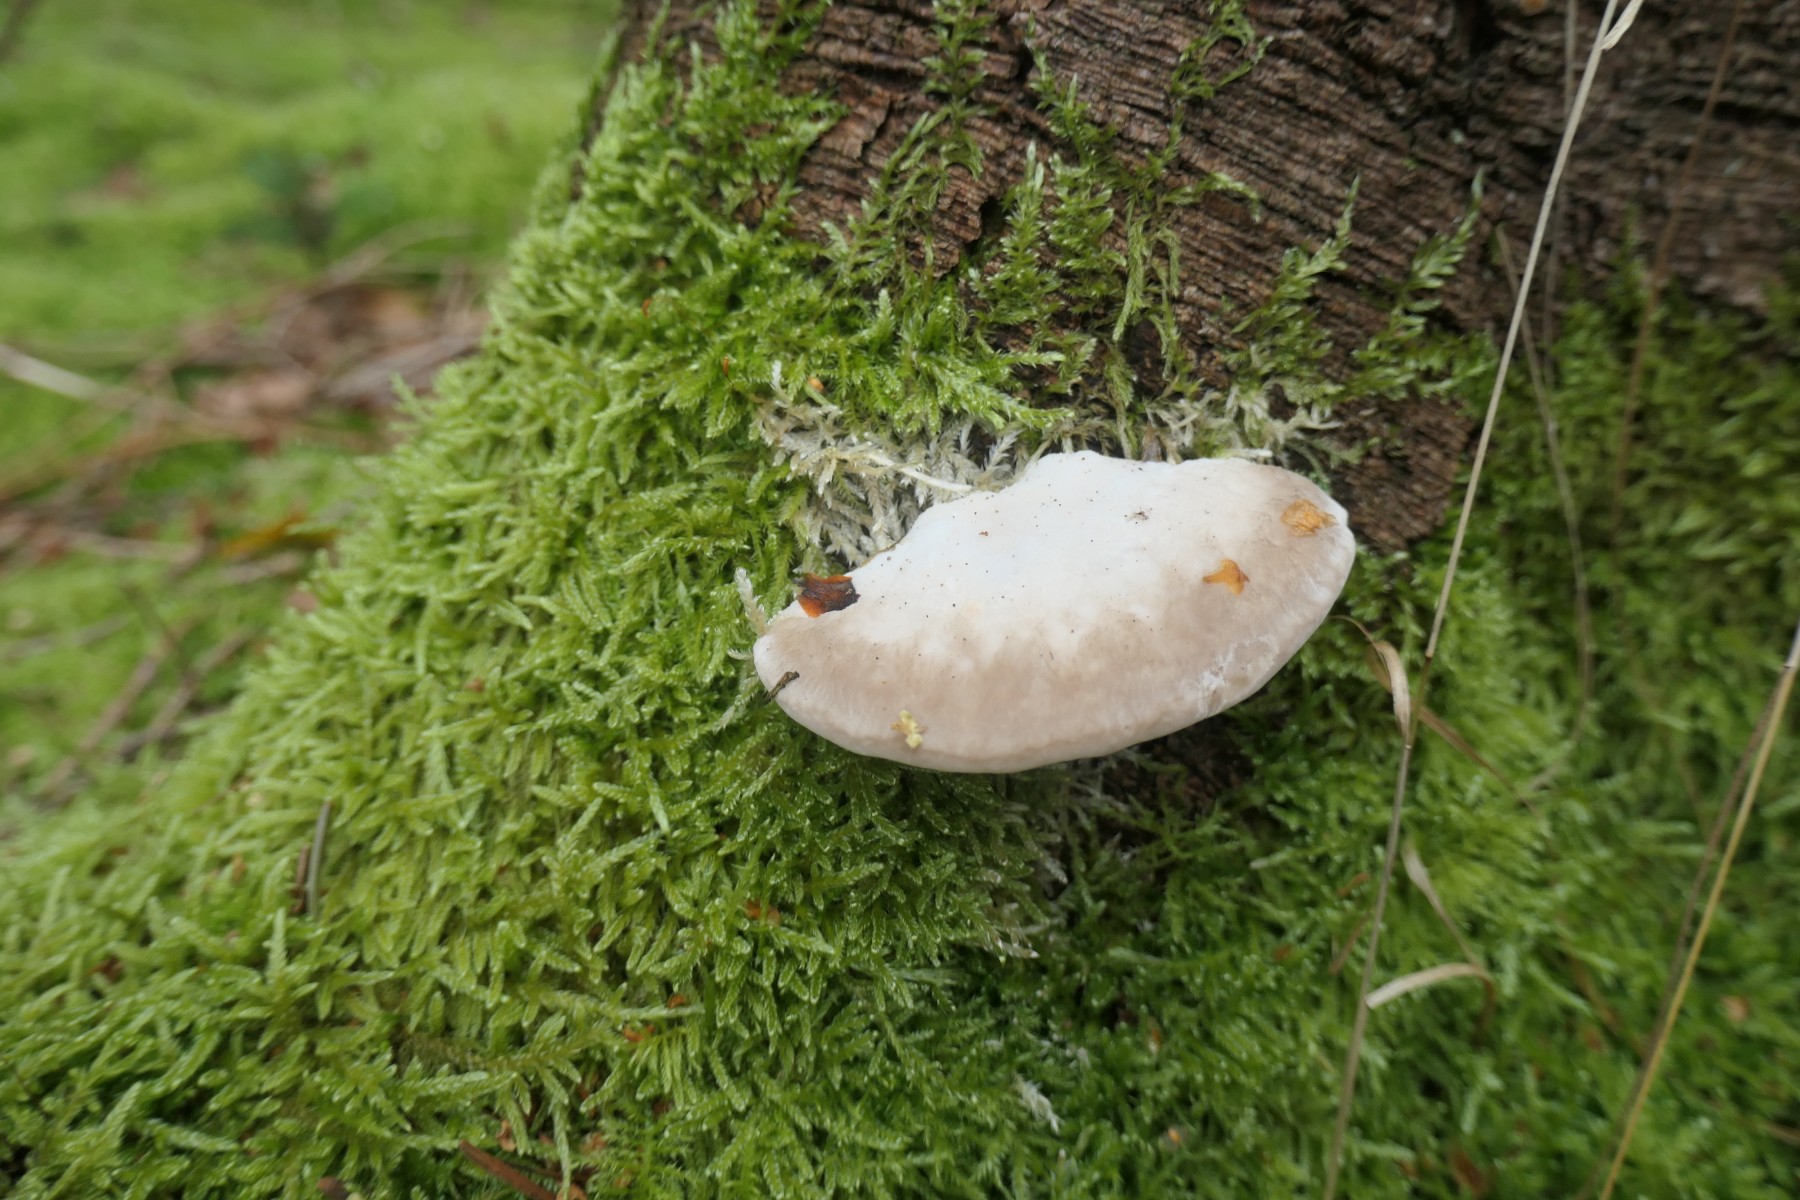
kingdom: Fungi
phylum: Basidiomycota
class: Agaricomycetes
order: Polyporales
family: Incrustoporiaceae
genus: Tyromyces
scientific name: Tyromyces lacteus
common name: mælkehvid kødporesvamp
